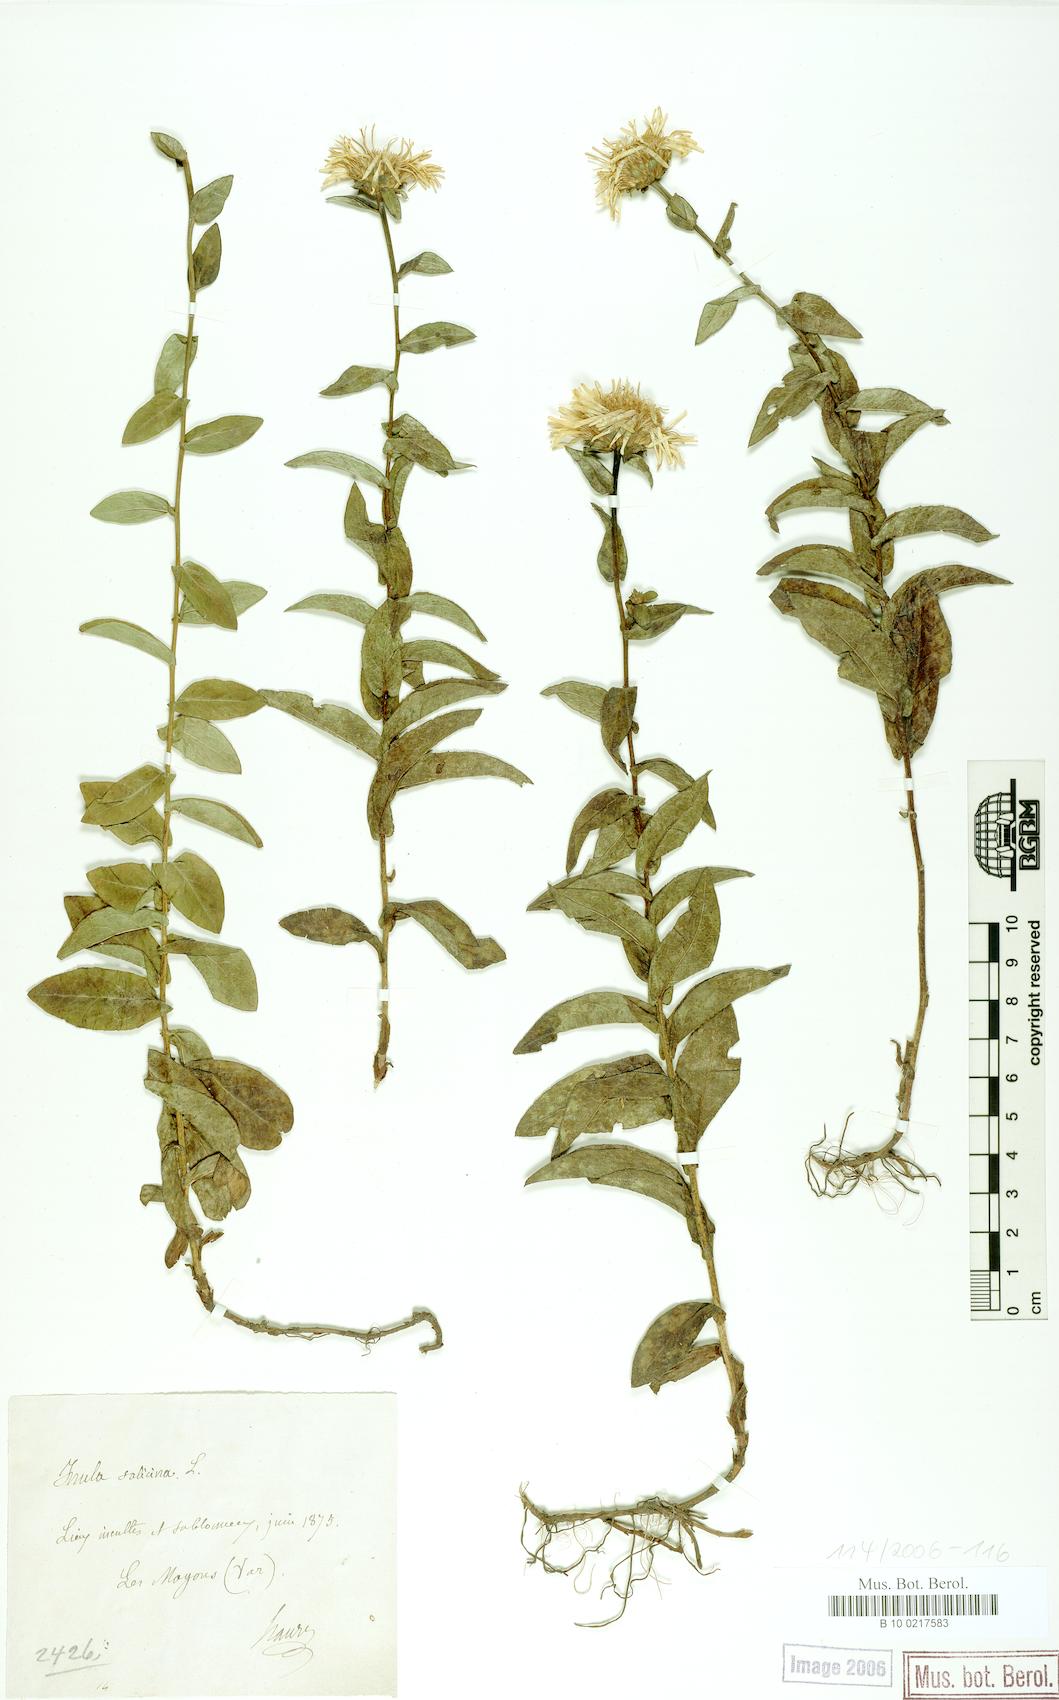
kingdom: Plantae
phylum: Tracheophyta
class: Magnoliopsida
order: Asterales
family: Asteraceae
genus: Pentanema
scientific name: Pentanema salicinum
